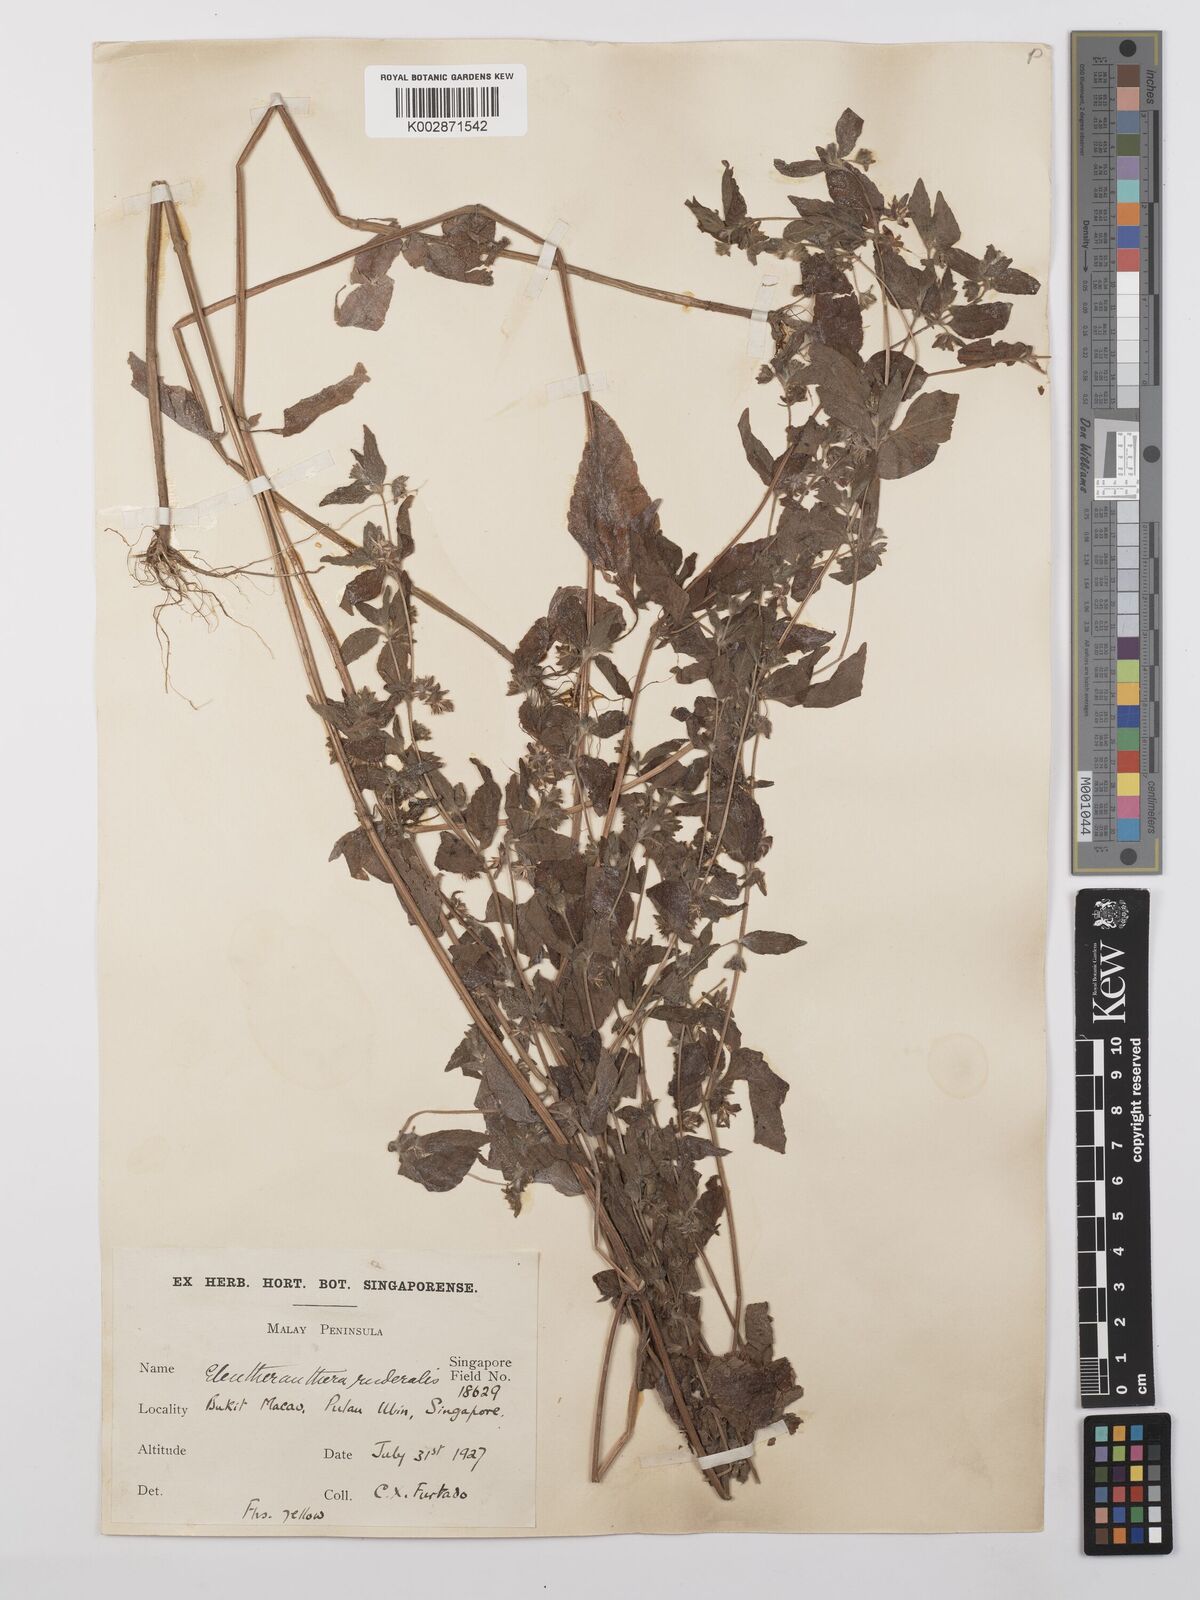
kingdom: Plantae
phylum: Tracheophyta
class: Magnoliopsida
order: Asterales
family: Asteraceae
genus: Eleutheranthera
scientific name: Eleutheranthera ruderalis
